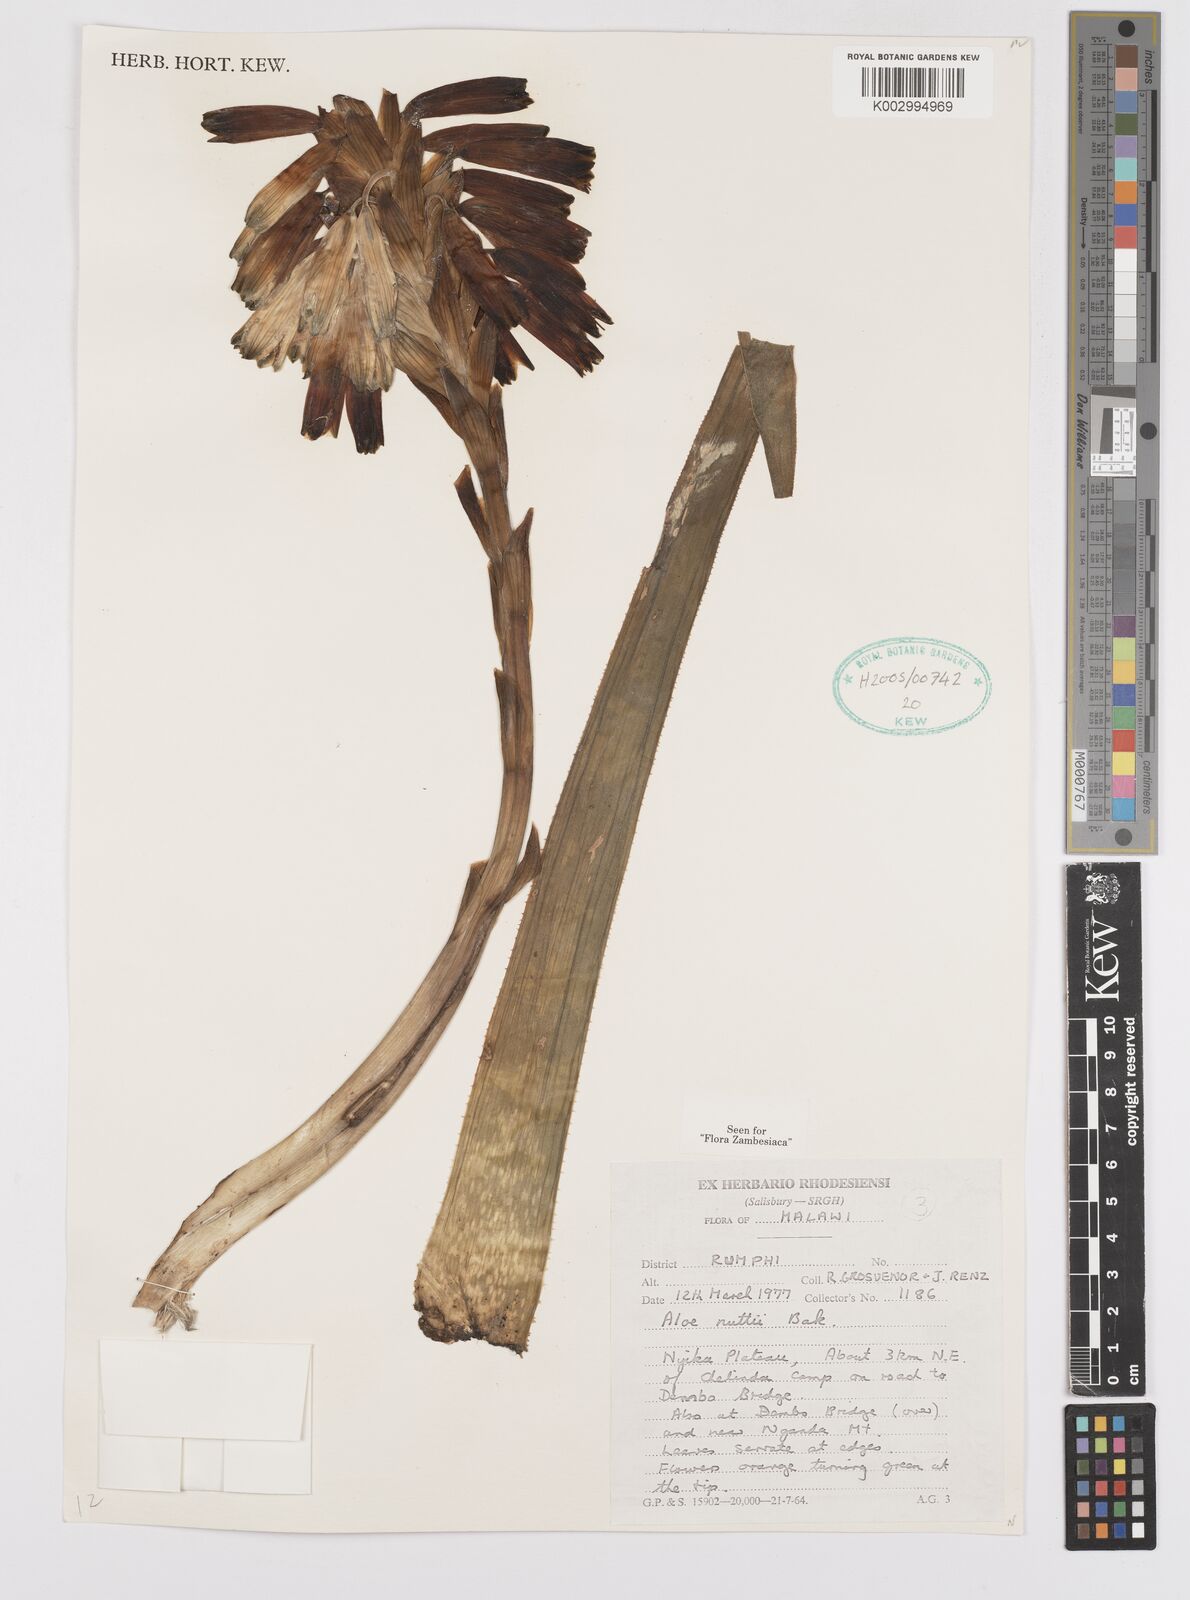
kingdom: Plantae
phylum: Tracheophyta
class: Liliopsida
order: Asparagales
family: Asphodelaceae
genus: Aloe
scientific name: Aloe nuttii
